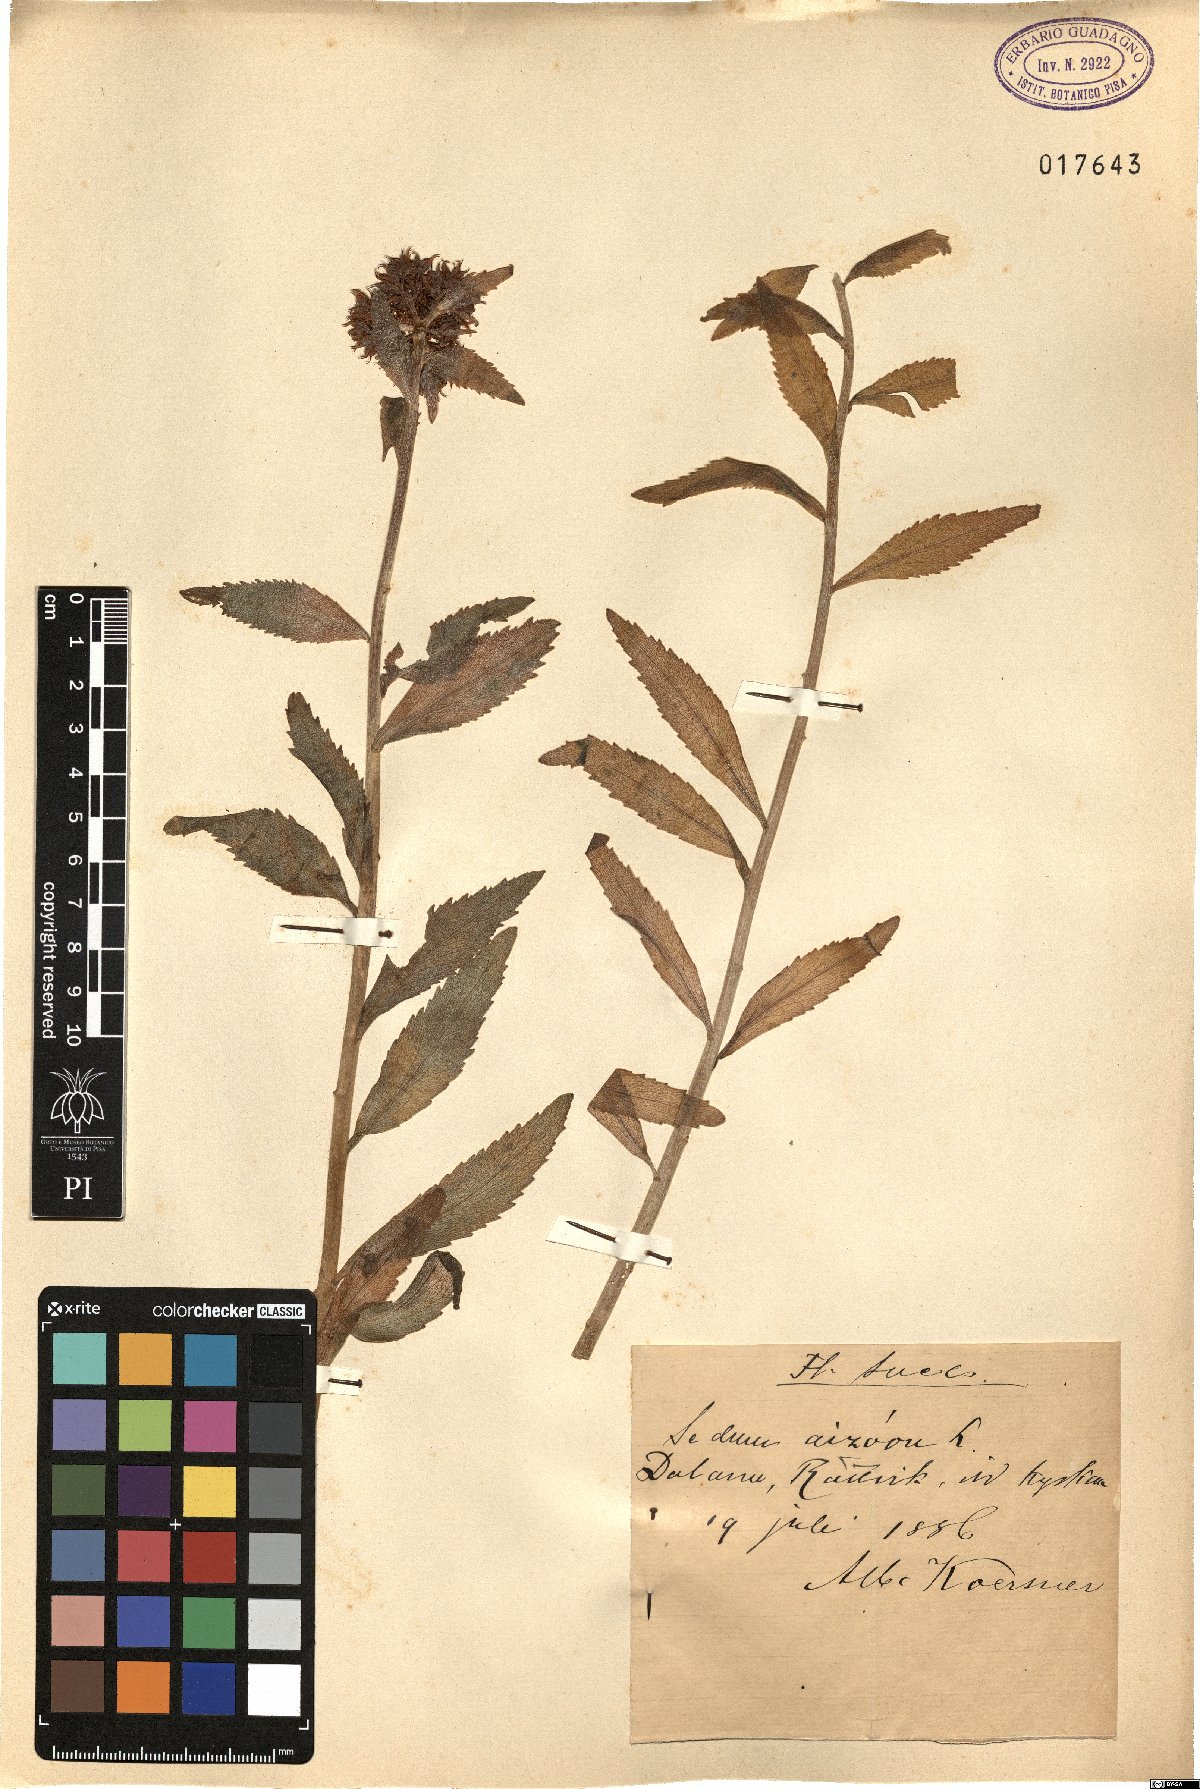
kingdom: Plantae
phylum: Tracheophyta
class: Magnoliopsida
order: Saxifragales
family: Crassulaceae
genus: Phedimus
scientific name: Phedimus aizoon
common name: Orpin aizoon
